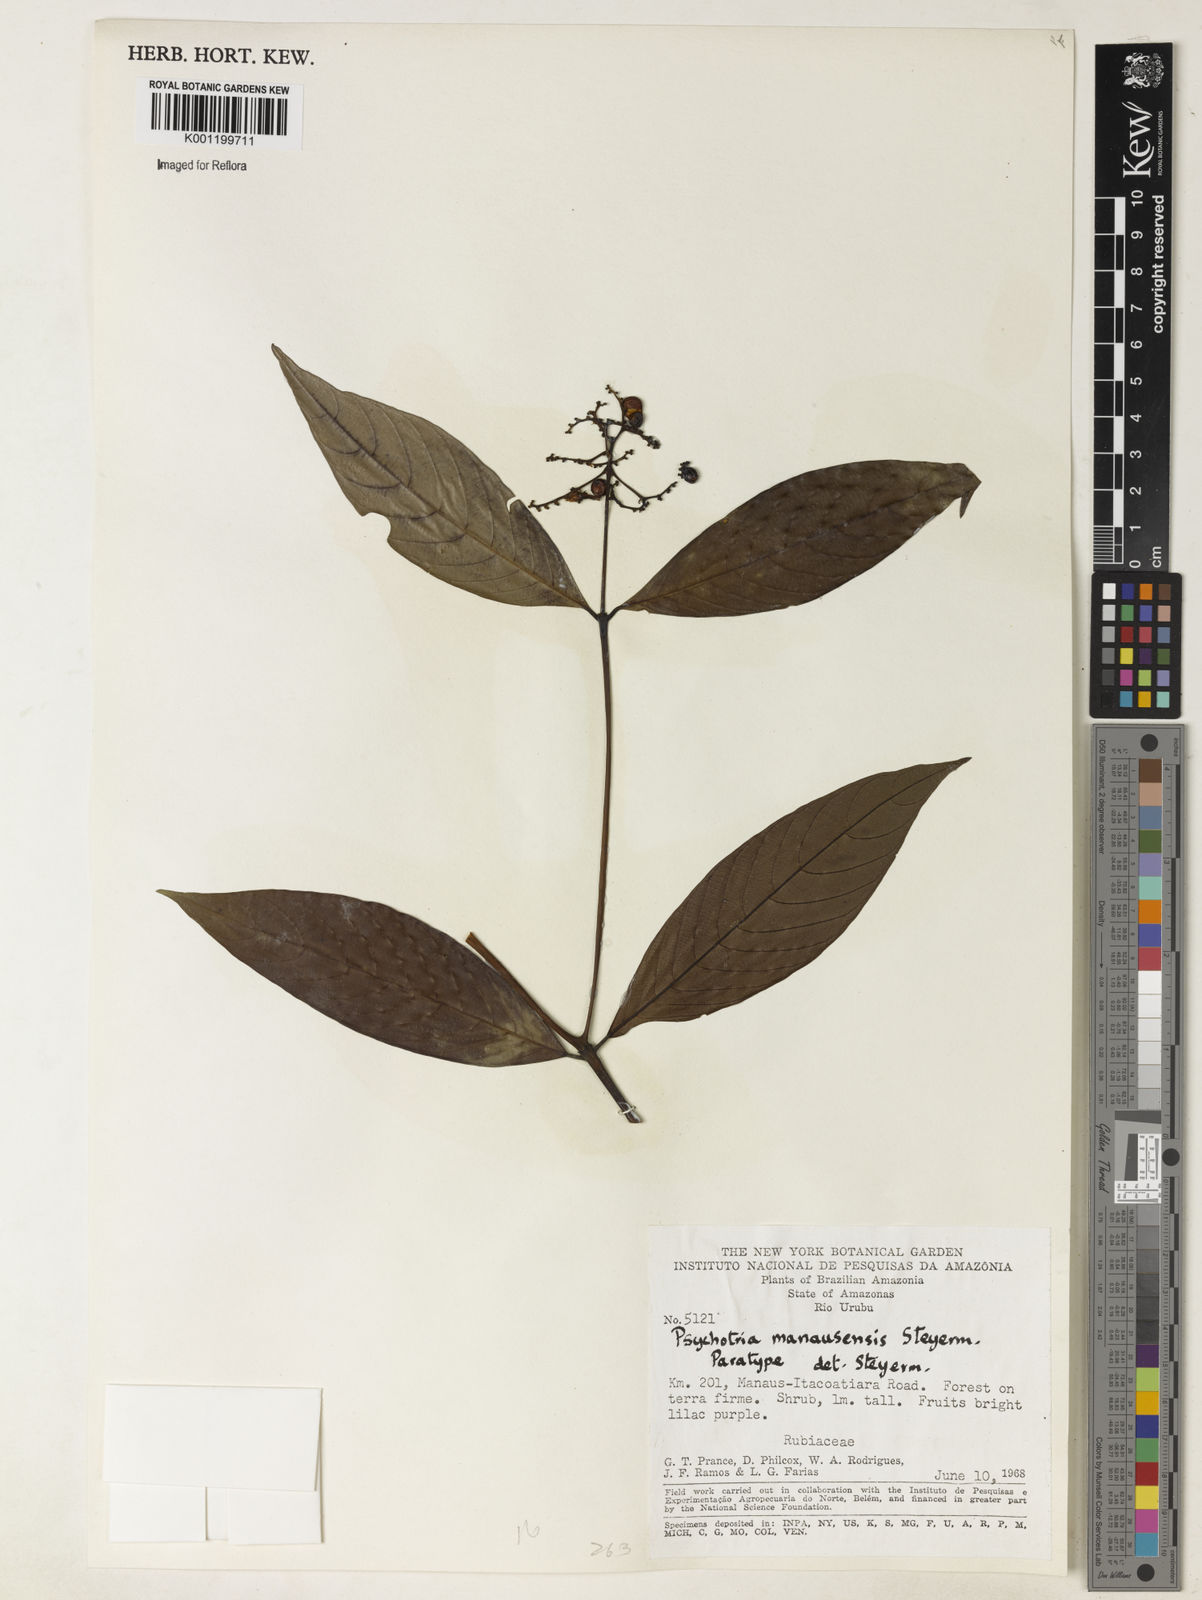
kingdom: Plantae
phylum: Tracheophyta
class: Magnoliopsida
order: Gentianales
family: Rubiaceae
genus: Palicourea
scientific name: Palicourea manausensis
